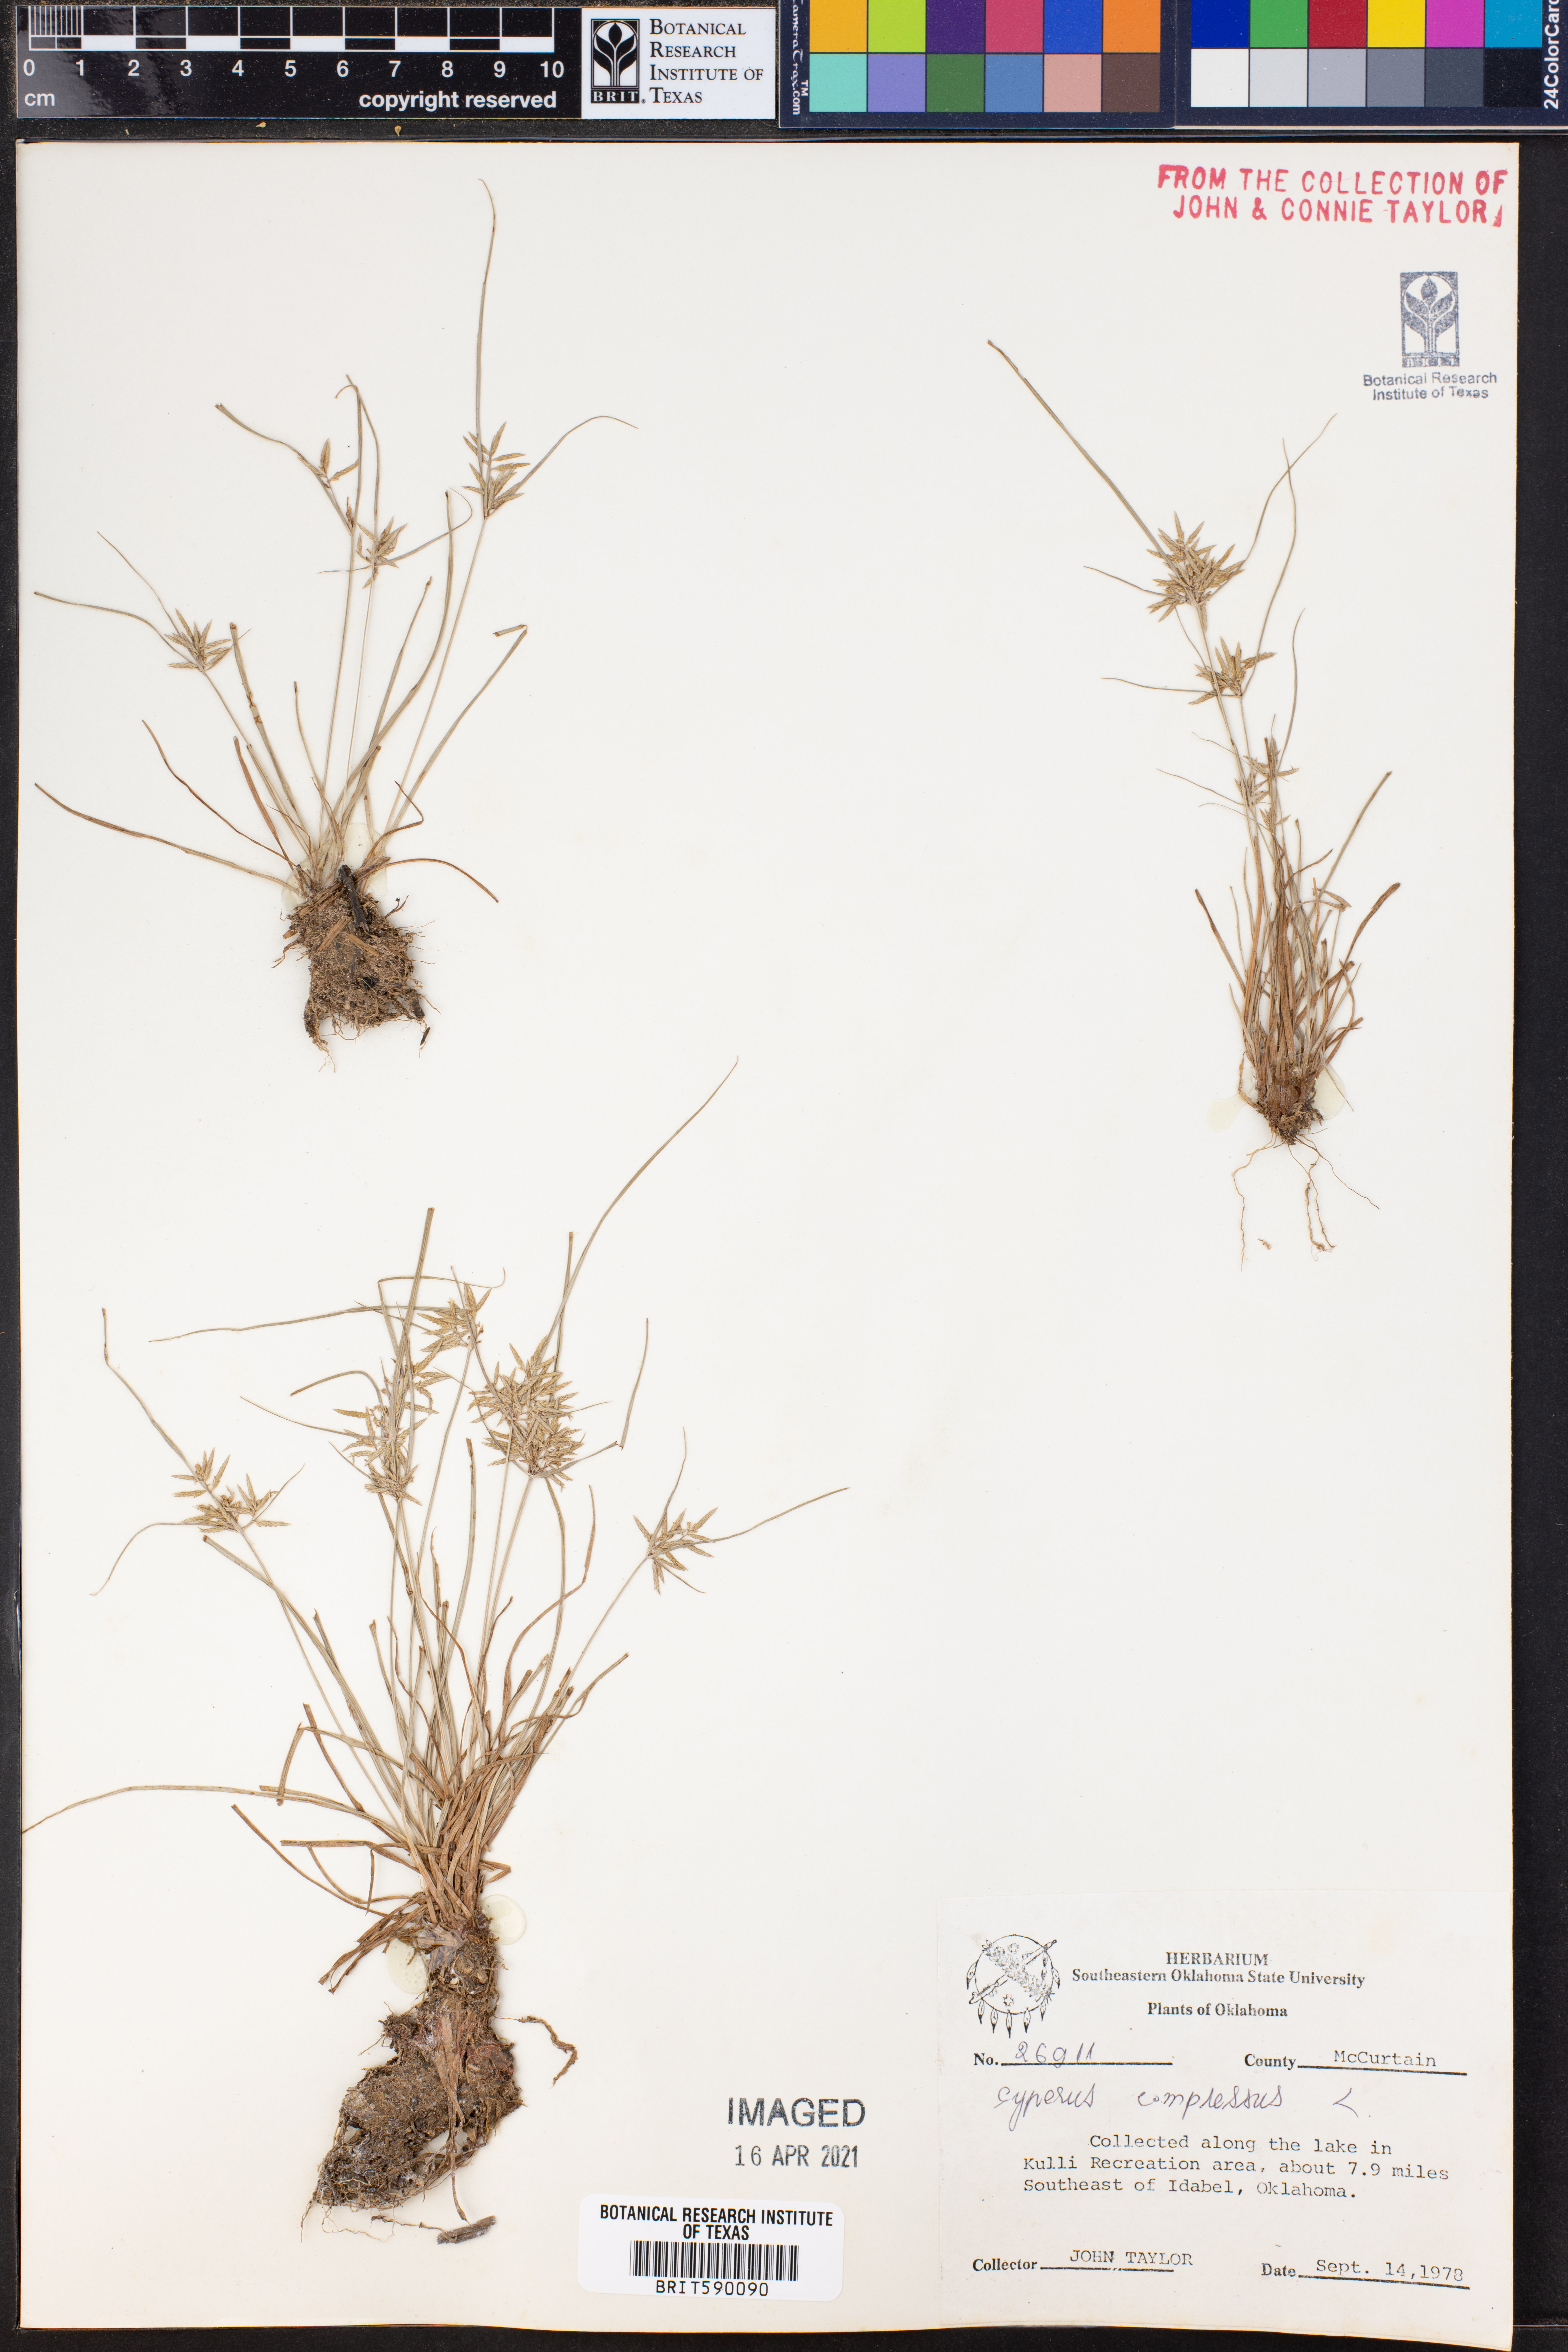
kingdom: Plantae
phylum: Tracheophyta
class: Liliopsida
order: Poales
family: Cyperaceae
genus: Cyperus
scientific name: Cyperus compressus
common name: Poorland flatsedge
